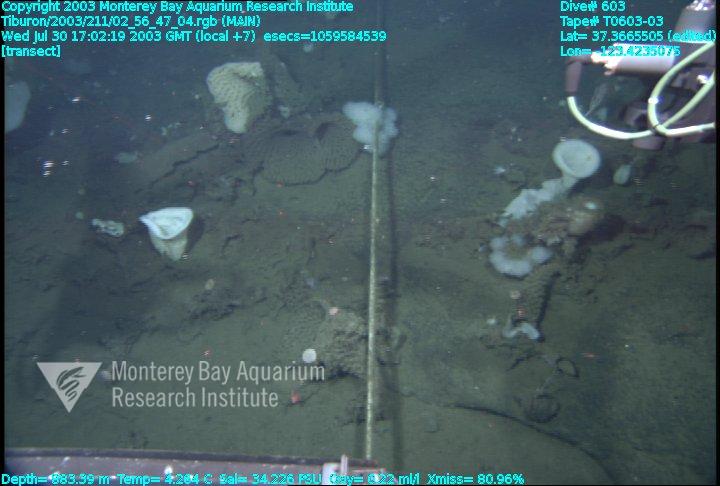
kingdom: Animalia
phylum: Porifera
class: Hexactinellida
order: Sceptrulophora
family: Farreidae
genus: Farrea
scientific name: Farrea occa
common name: Reversed glass sponge
